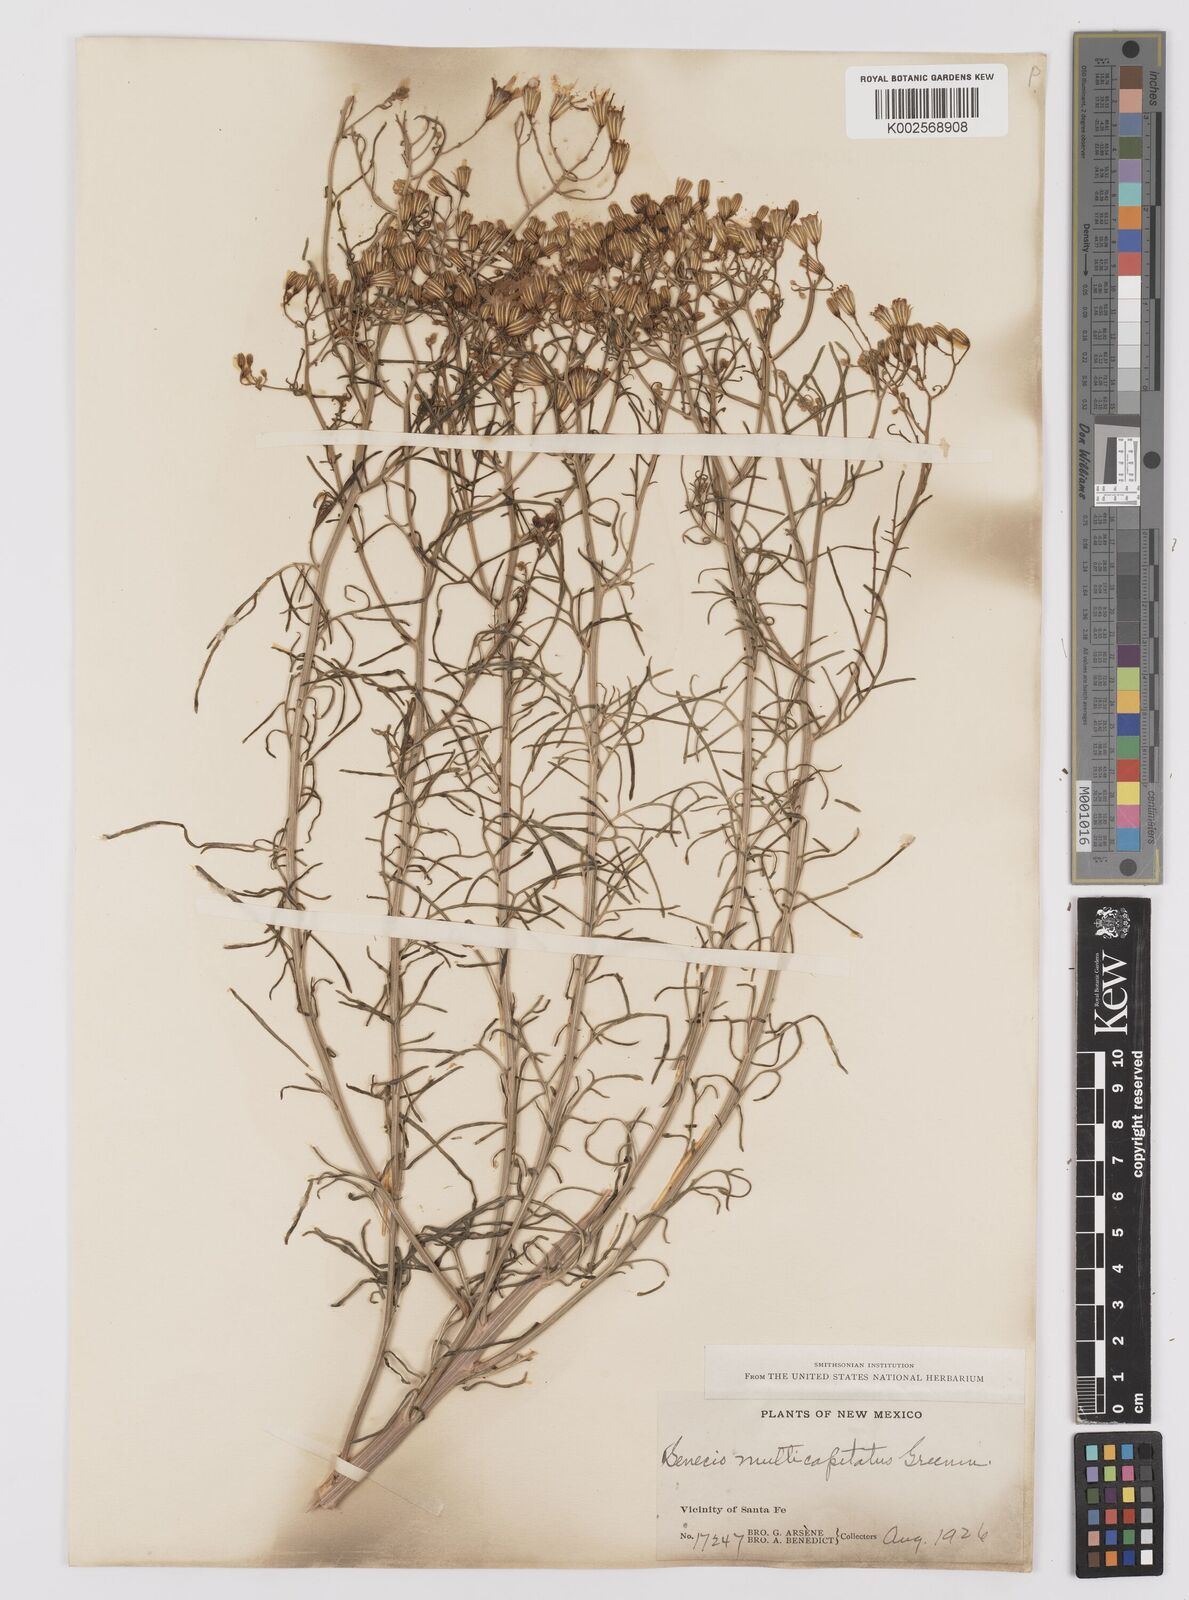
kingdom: Plantae
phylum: Tracheophyta
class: Magnoliopsida
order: Asterales
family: Asteraceae
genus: Senecio
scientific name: Senecio spartioides
